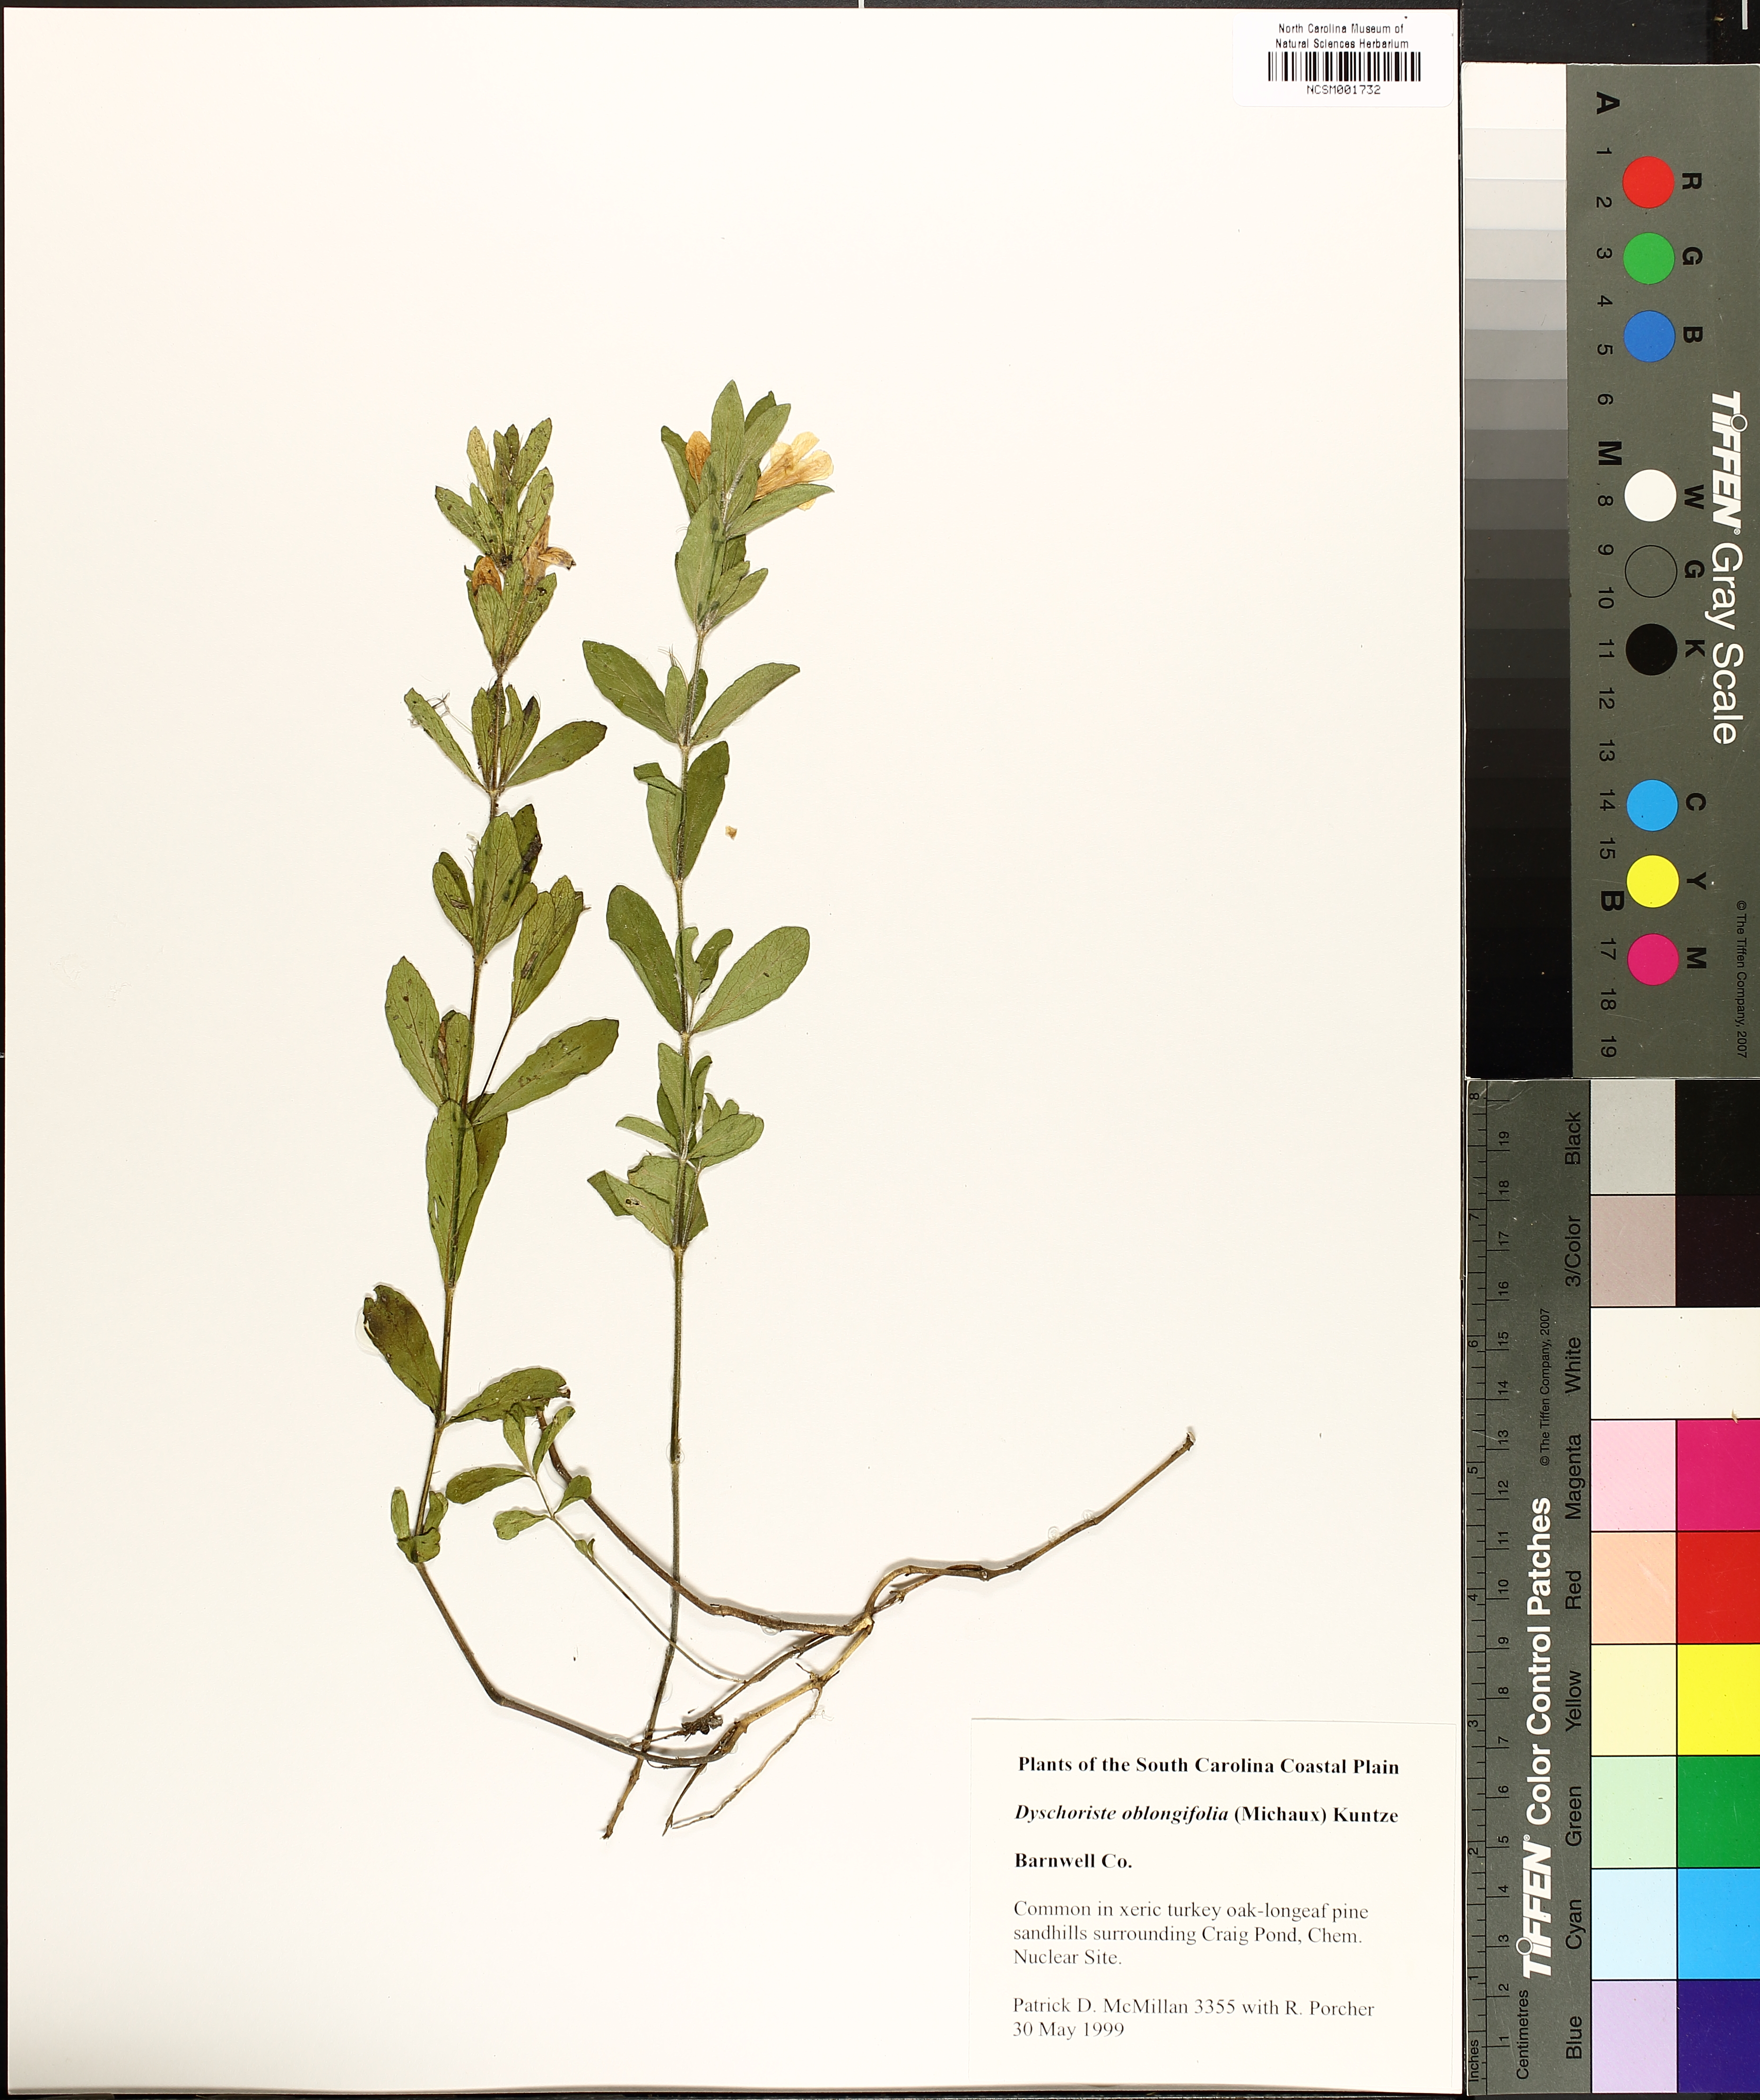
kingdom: Plantae
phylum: Tracheophyta
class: Magnoliopsida
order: Lamiales
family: Acanthaceae
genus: Dyschoriste
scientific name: Dyschoriste oblongifolia
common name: Blue twinflower
